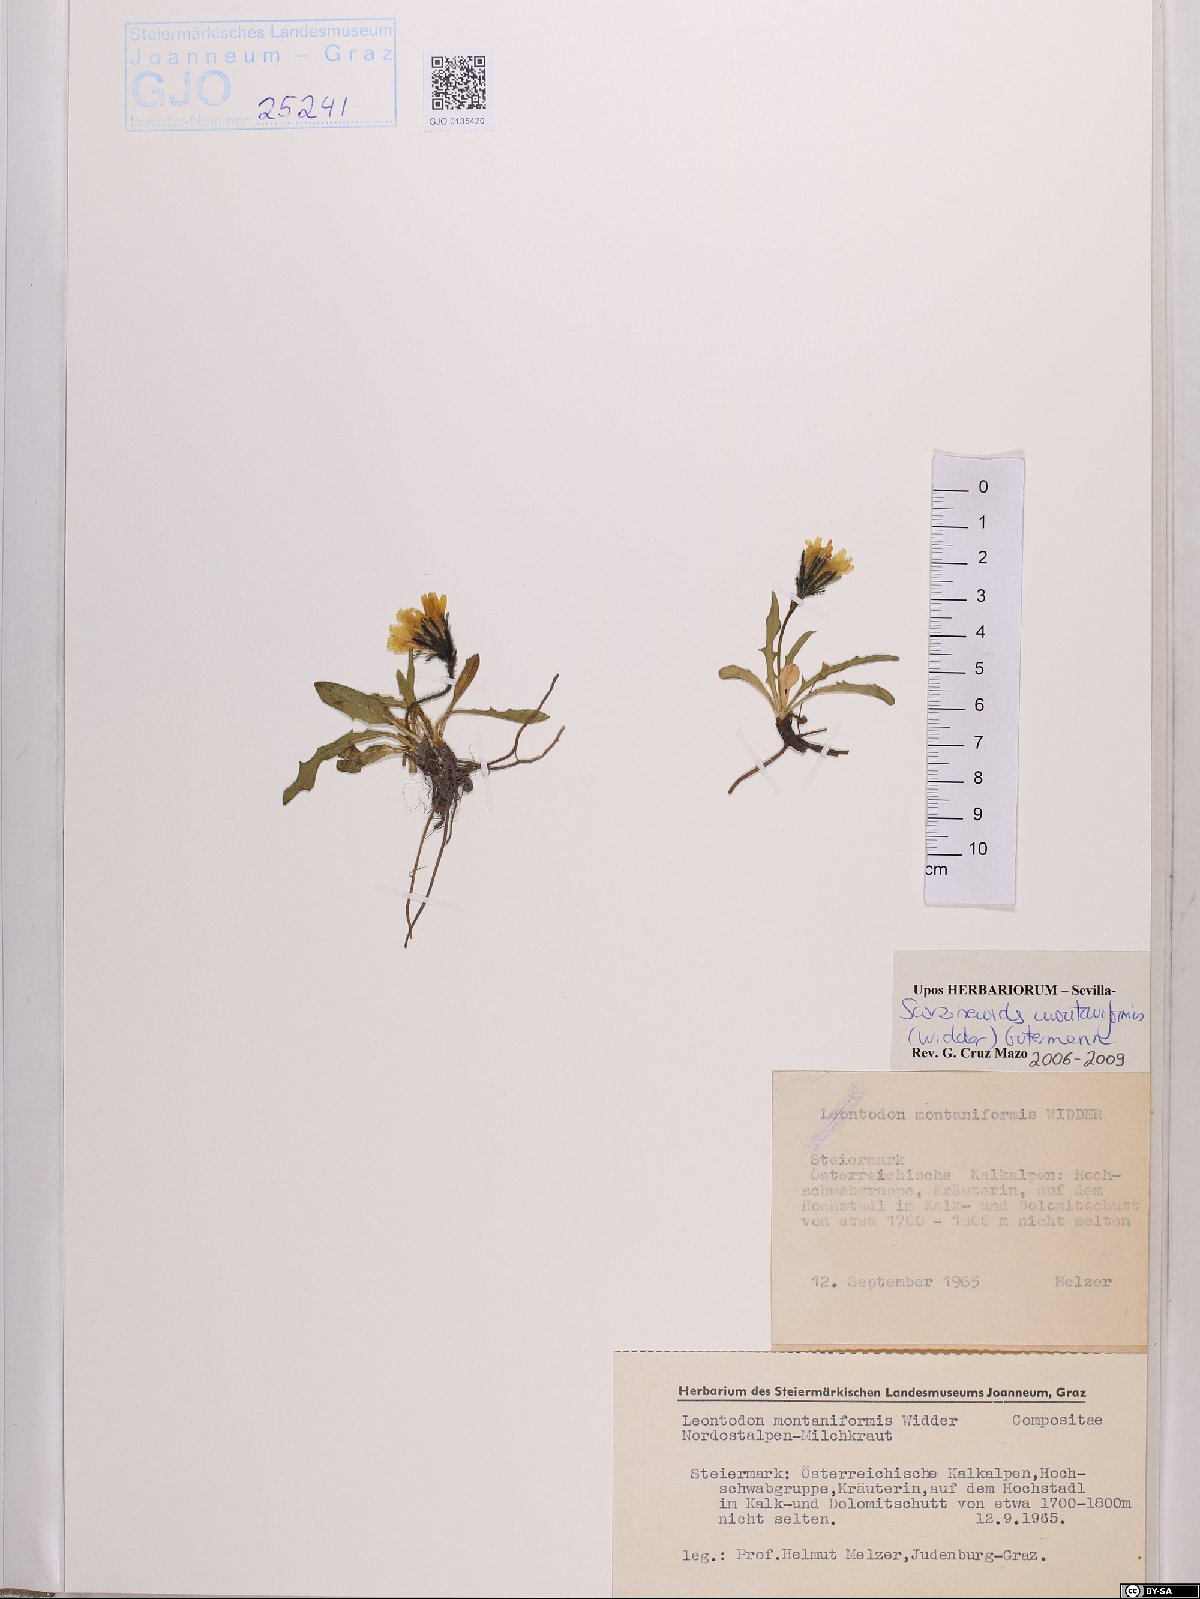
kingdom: Plantae
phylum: Tracheophyta
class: Magnoliopsida
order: Asterales
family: Asteraceae
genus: Scorzoneroides
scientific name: Scorzoneroides montana
